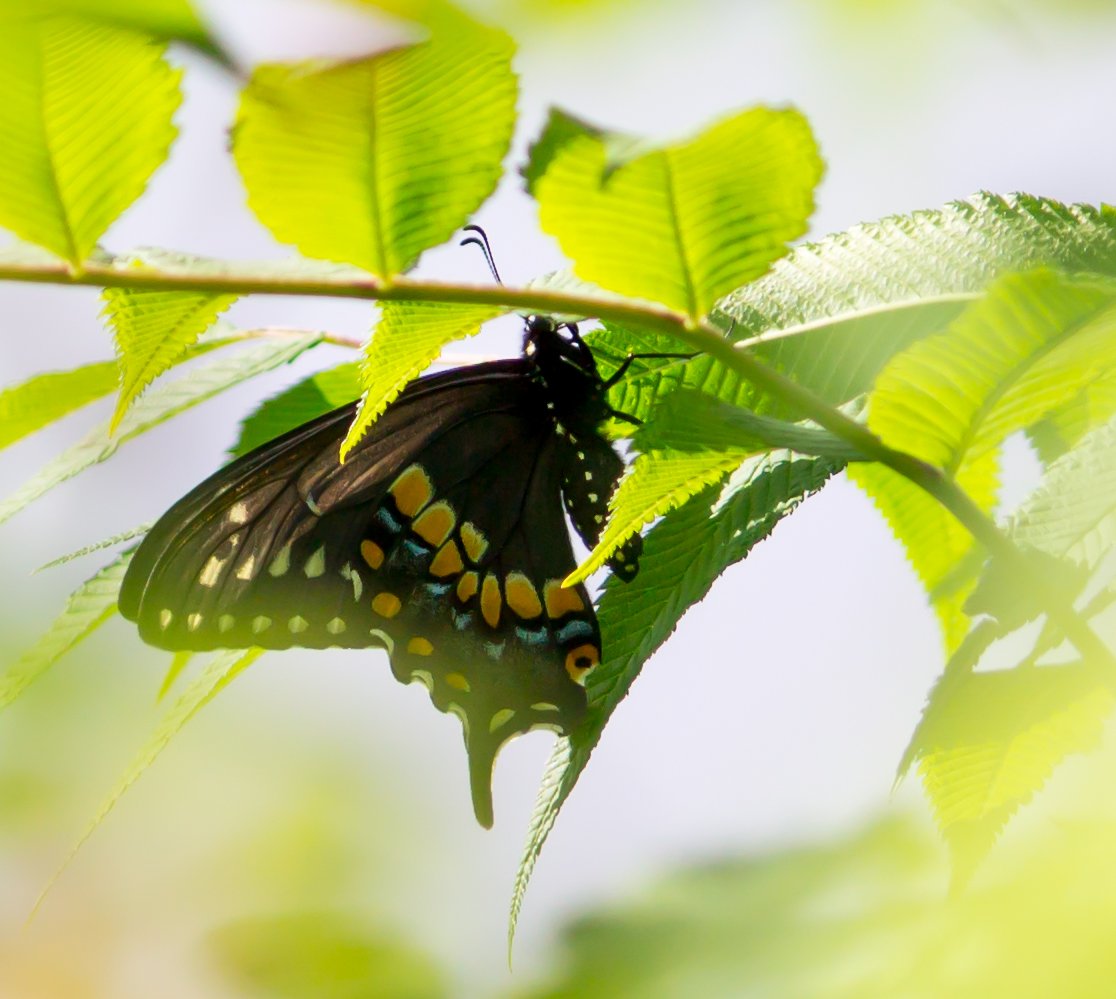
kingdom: Animalia
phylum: Arthropoda
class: Insecta
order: Lepidoptera
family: Papilionidae
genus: Papilio
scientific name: Papilio polyxenes
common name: Black Swallowtail
